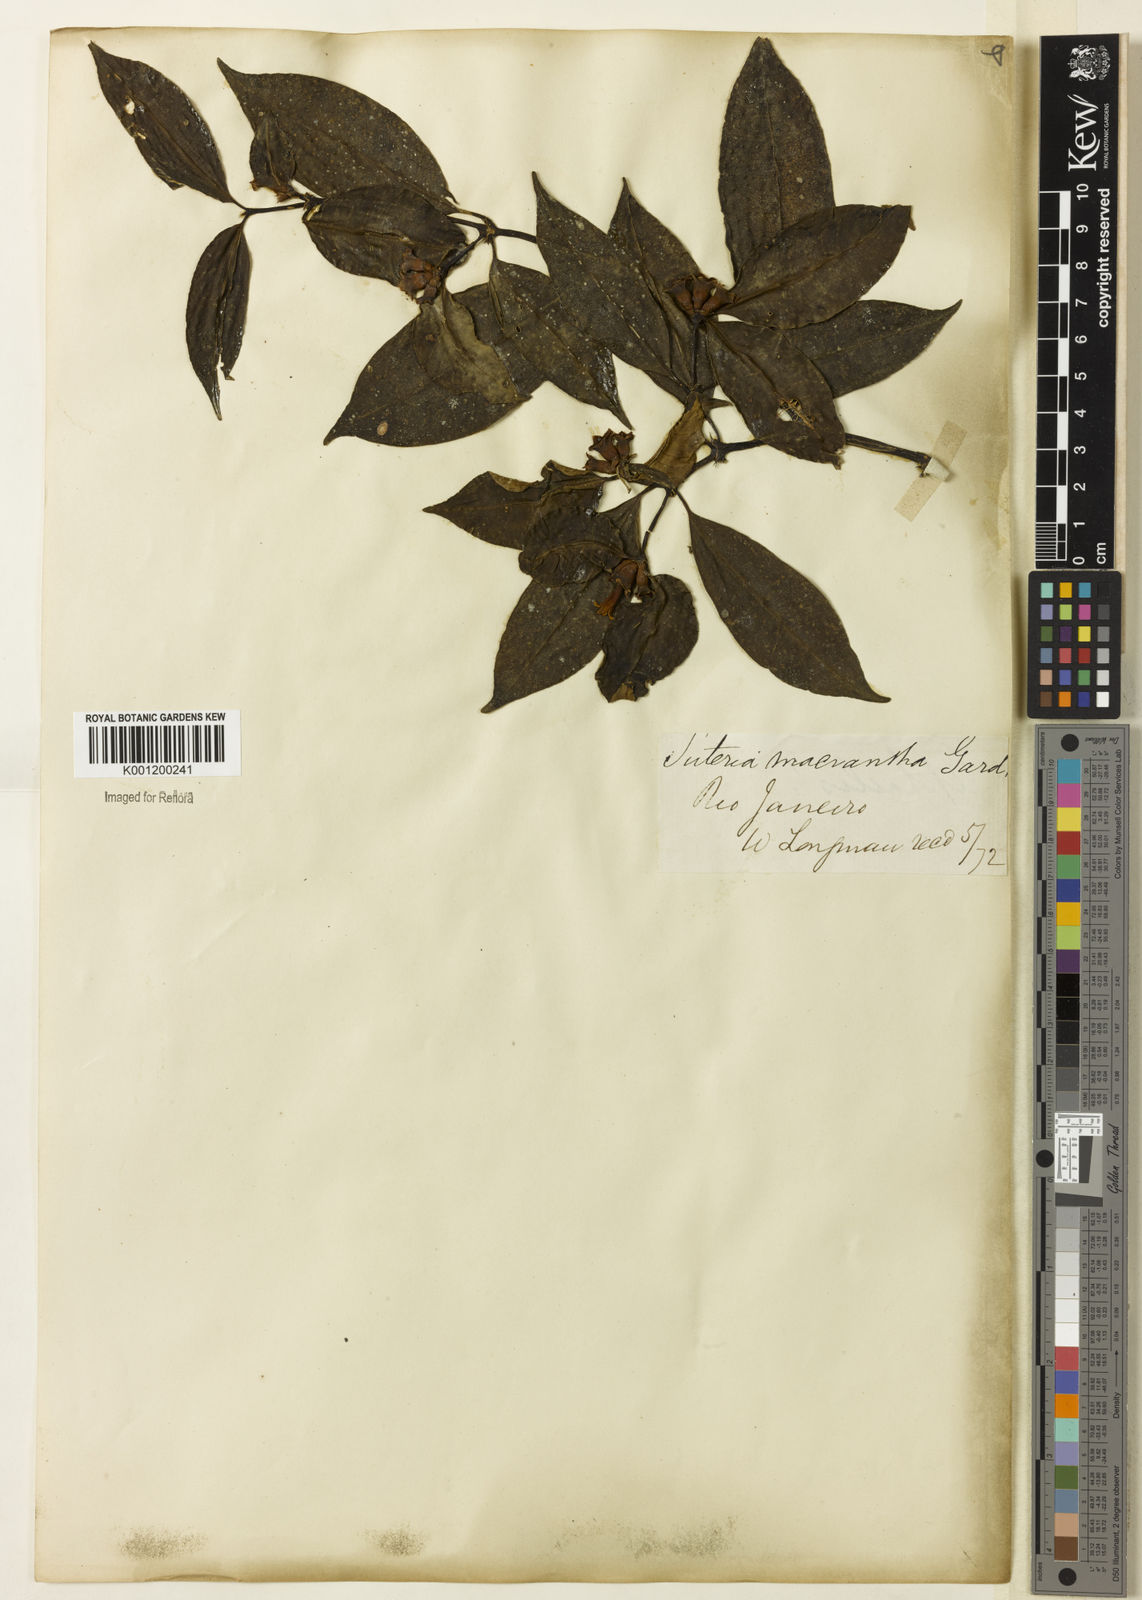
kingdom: Plantae
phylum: Tracheophyta
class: Magnoliopsida
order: Gentianales
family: Rubiaceae
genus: Psychotria
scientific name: Psychotria
